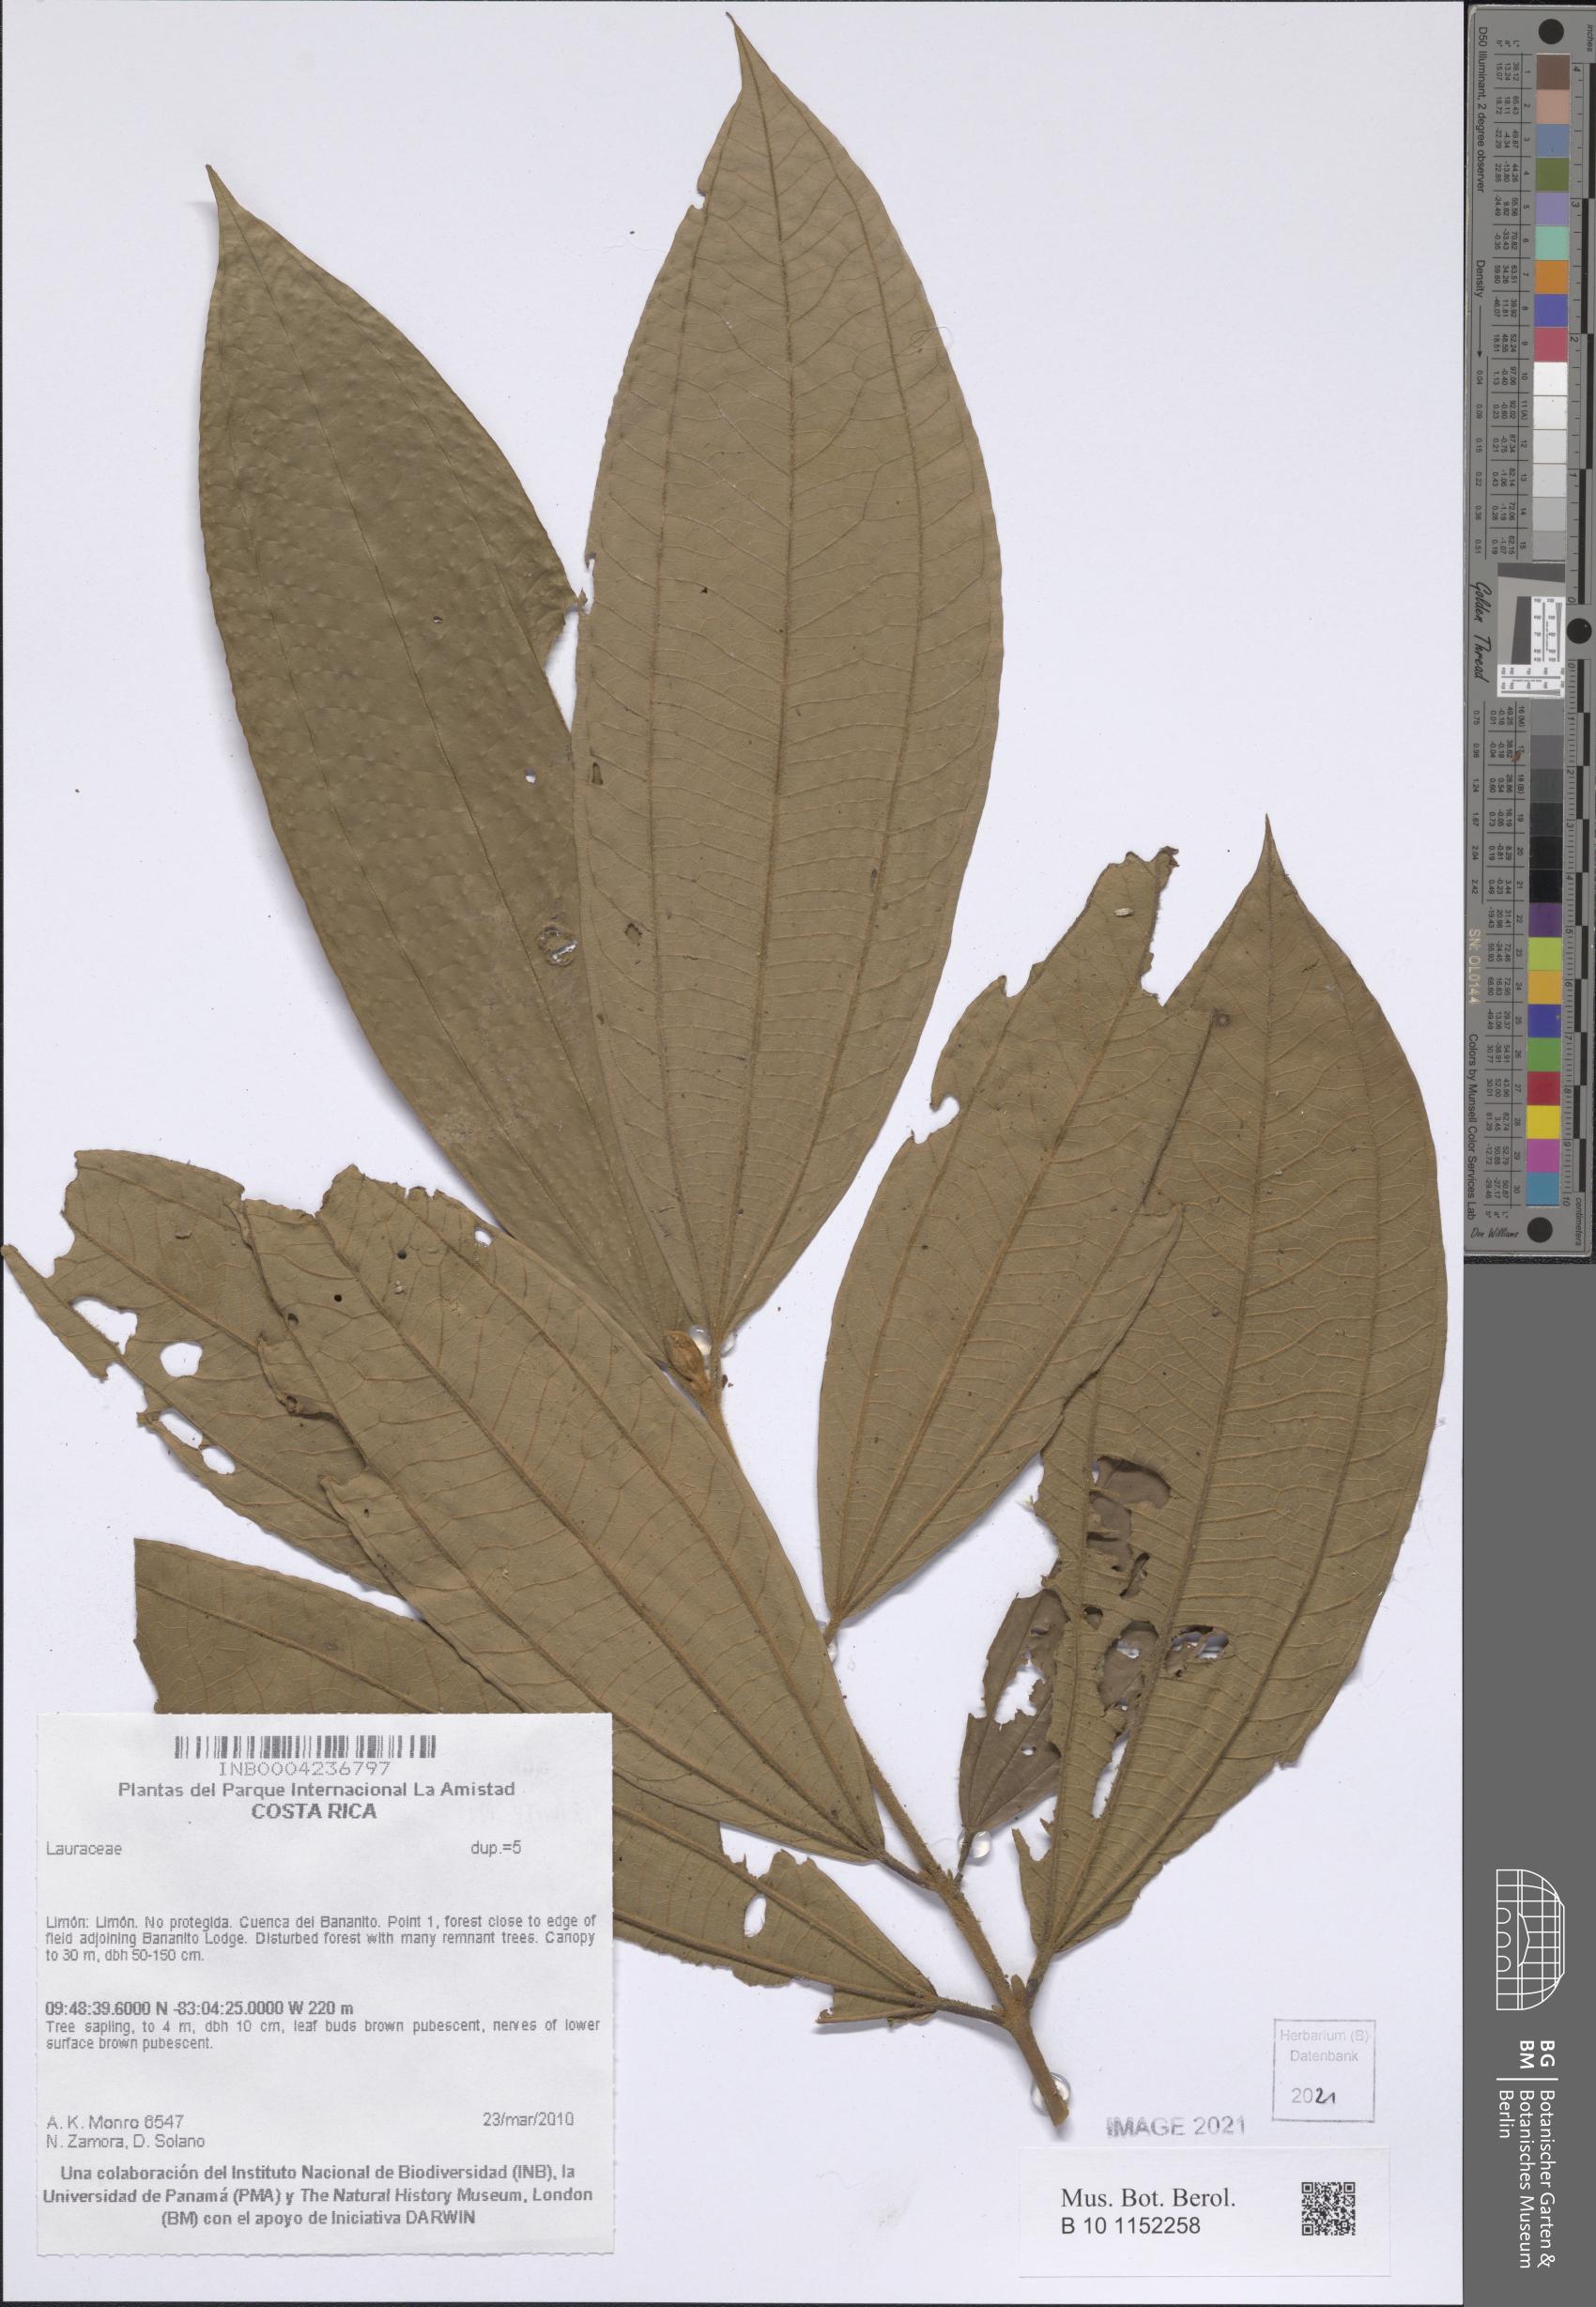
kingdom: Plantae
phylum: Tracheophyta
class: Magnoliopsida
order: Laurales
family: Lauraceae
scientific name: Lauraceae
